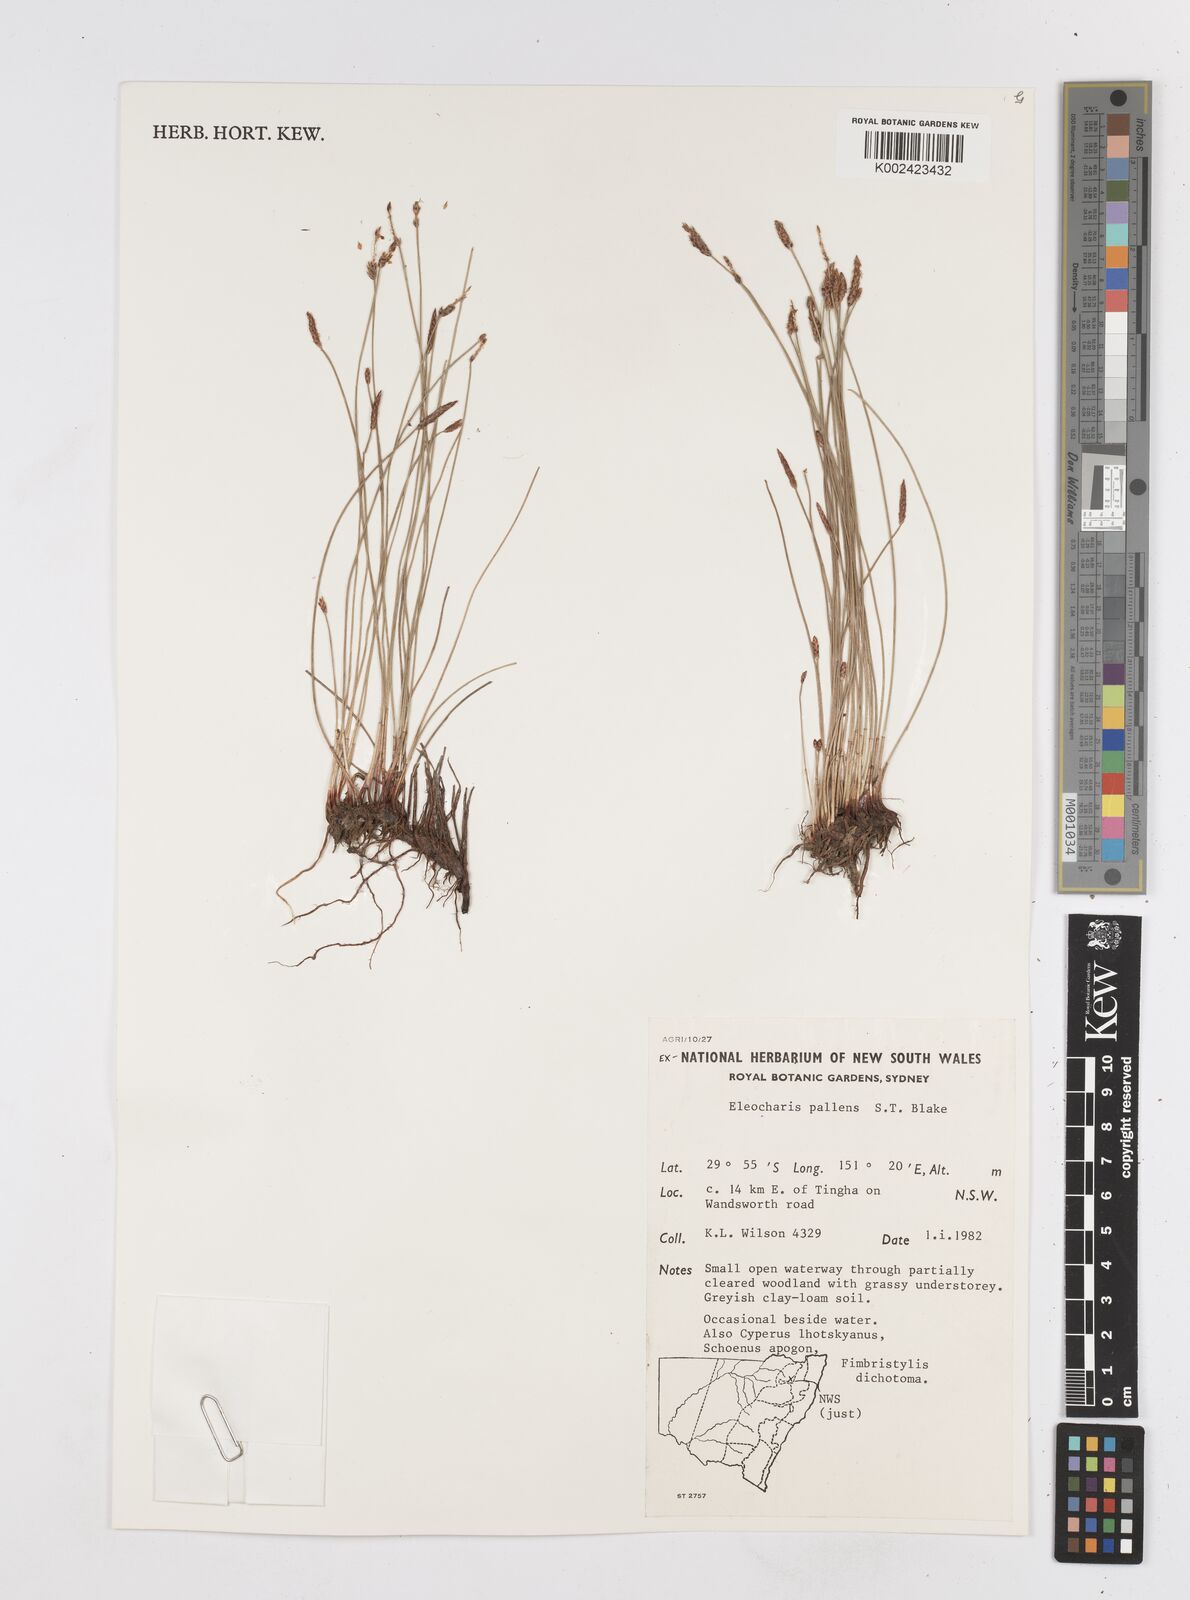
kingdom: Plantae
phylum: Tracheophyta
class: Liliopsida
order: Poales
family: Cyperaceae
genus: Eleocharis
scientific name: Eleocharis acuta
